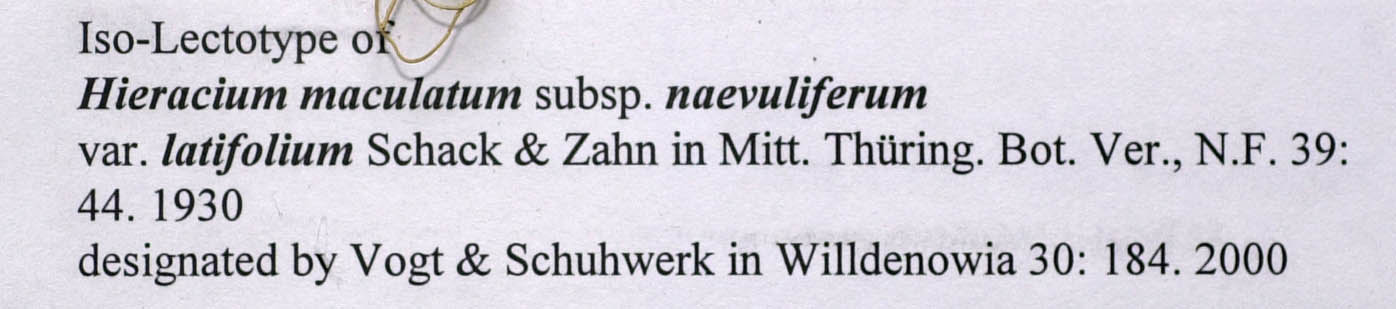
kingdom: Plantae
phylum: Tracheophyta
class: Magnoliopsida
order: Asterales
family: Asteraceae
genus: Hieracium
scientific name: Hieracium maculatum
